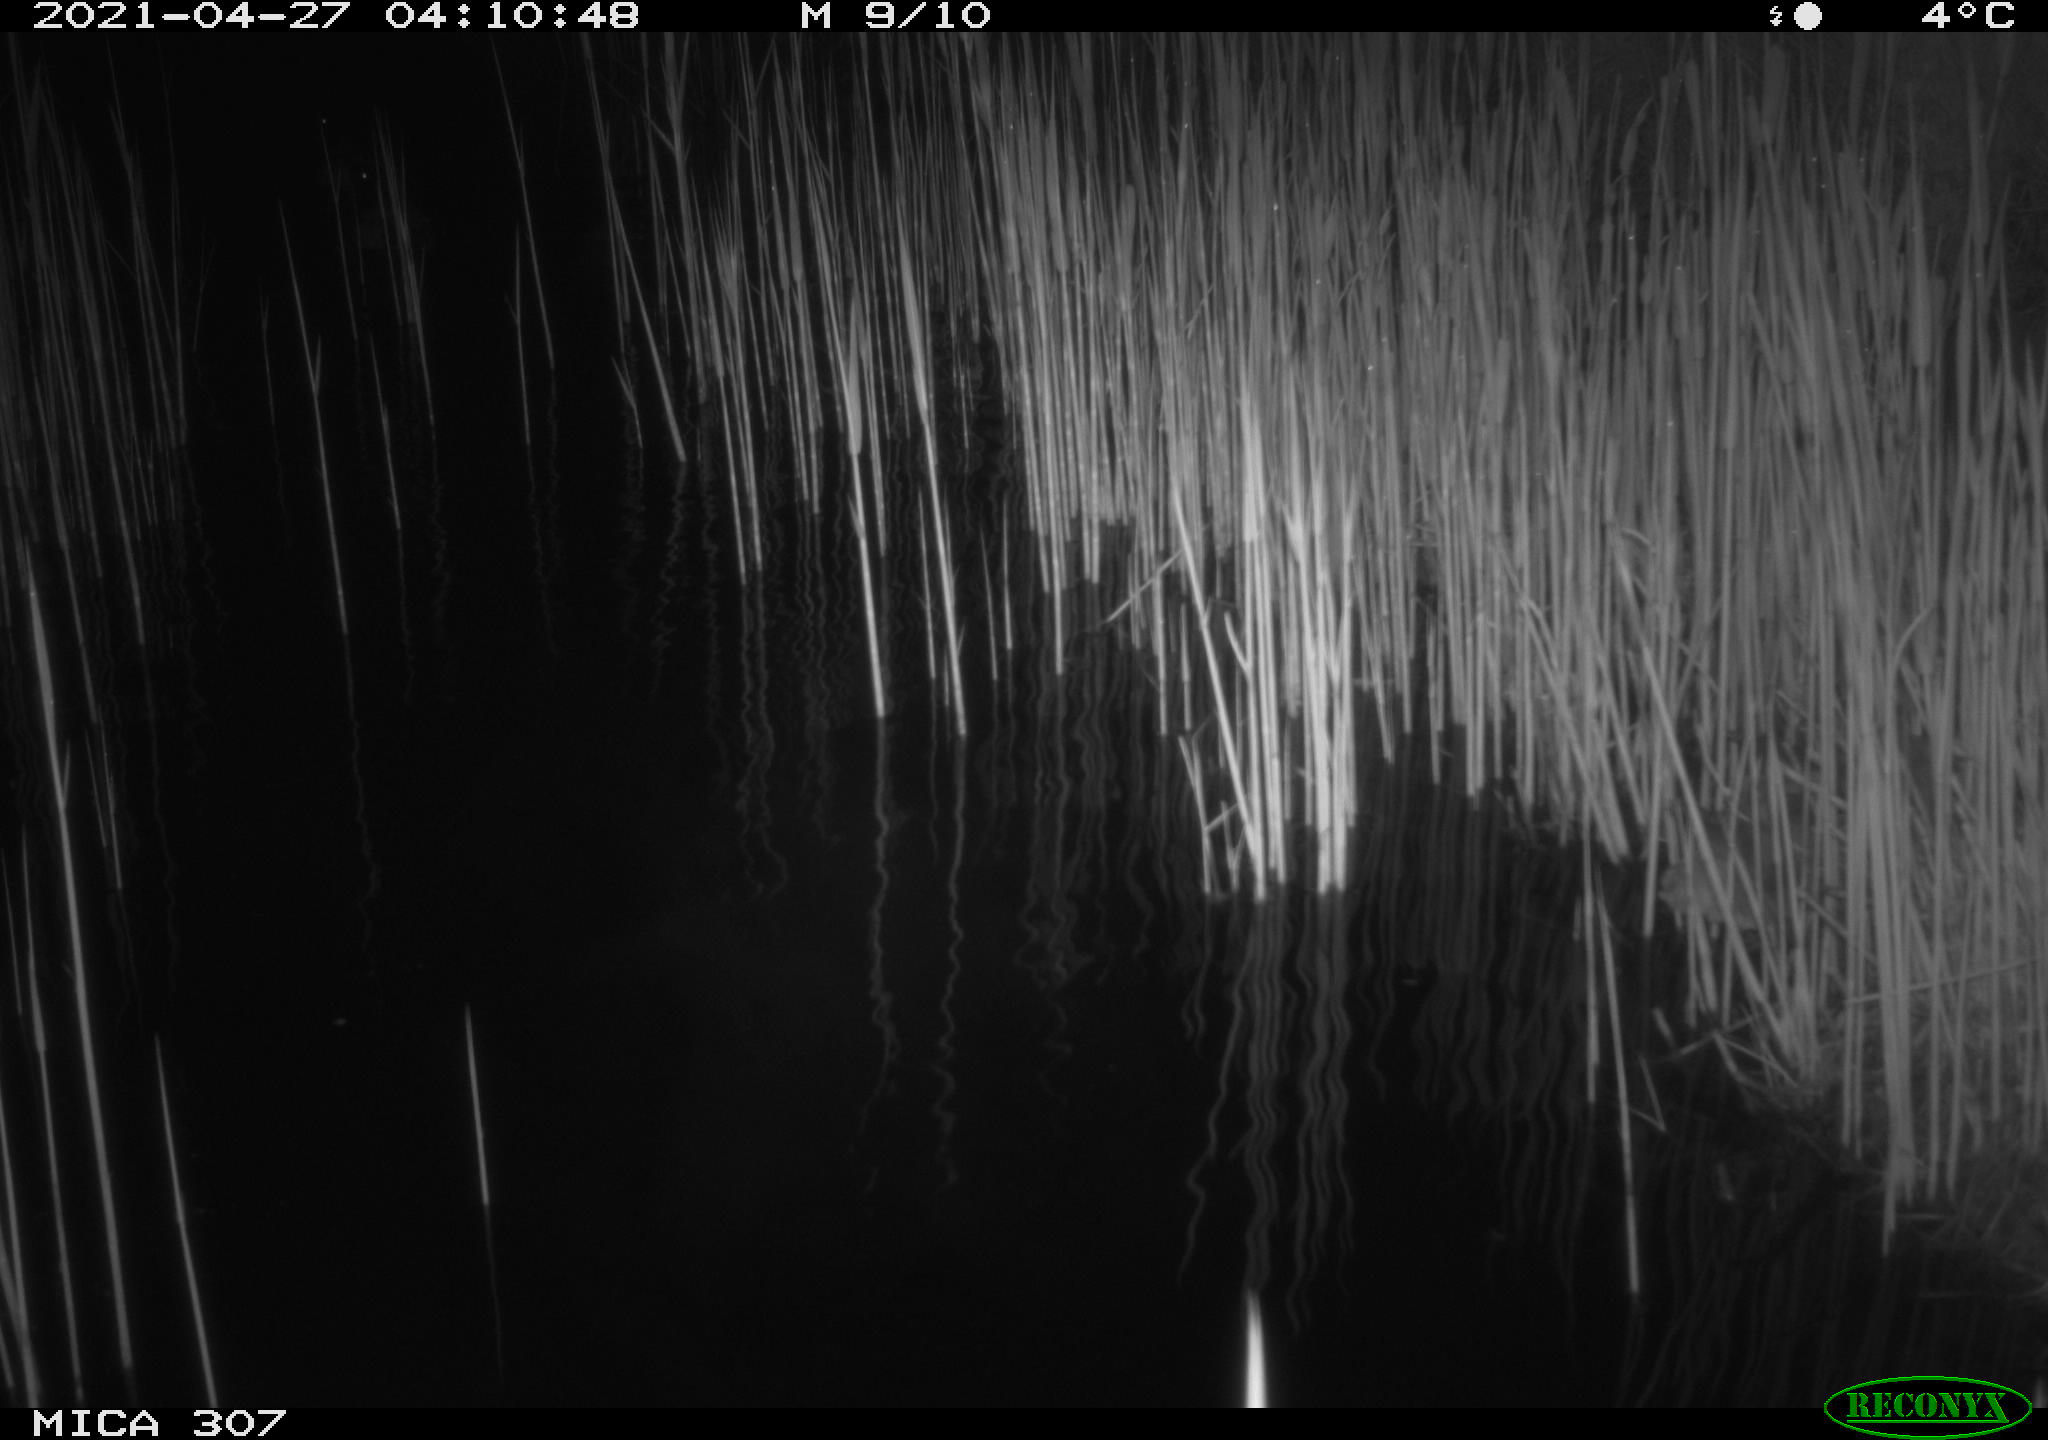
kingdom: Animalia
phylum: Chordata
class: Aves
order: Anseriformes
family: Anatidae
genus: Anas
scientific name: Anas platyrhynchos
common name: Mallard
